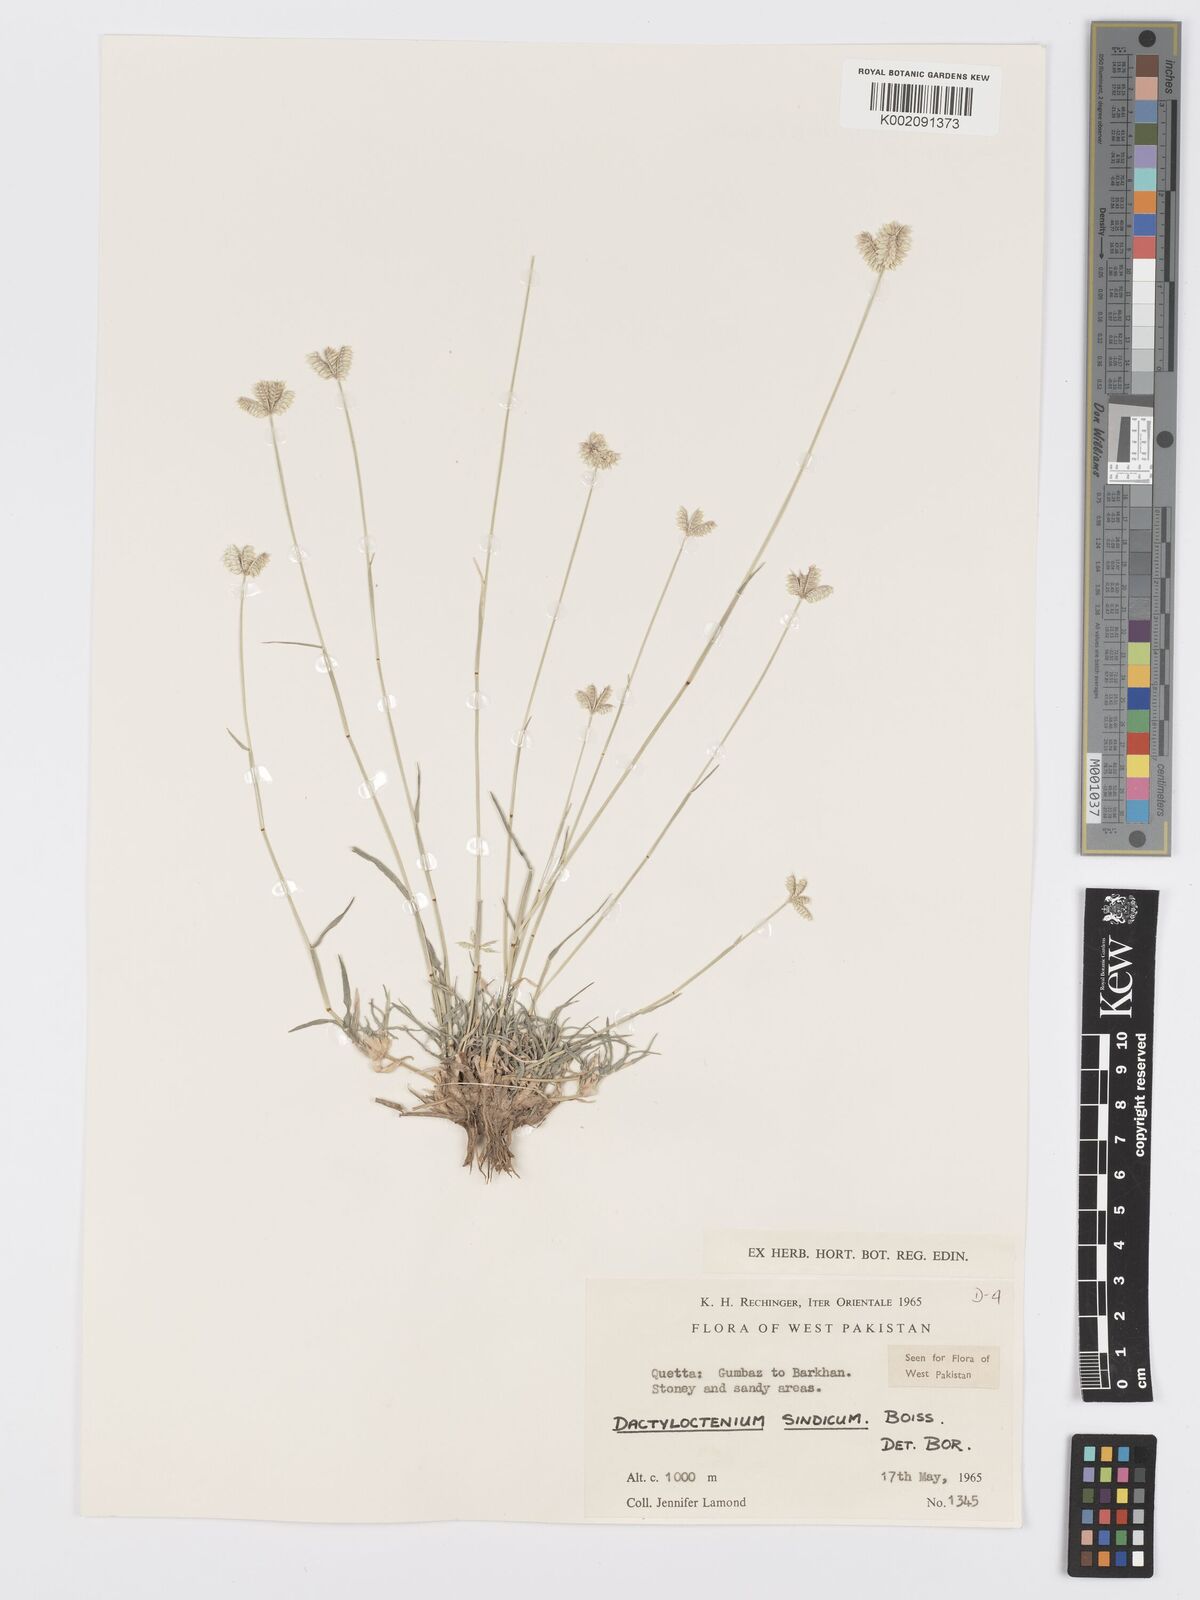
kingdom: Plantae
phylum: Tracheophyta
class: Liliopsida
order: Poales
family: Poaceae
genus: Dactyloctenium
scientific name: Dactyloctenium scindicum
